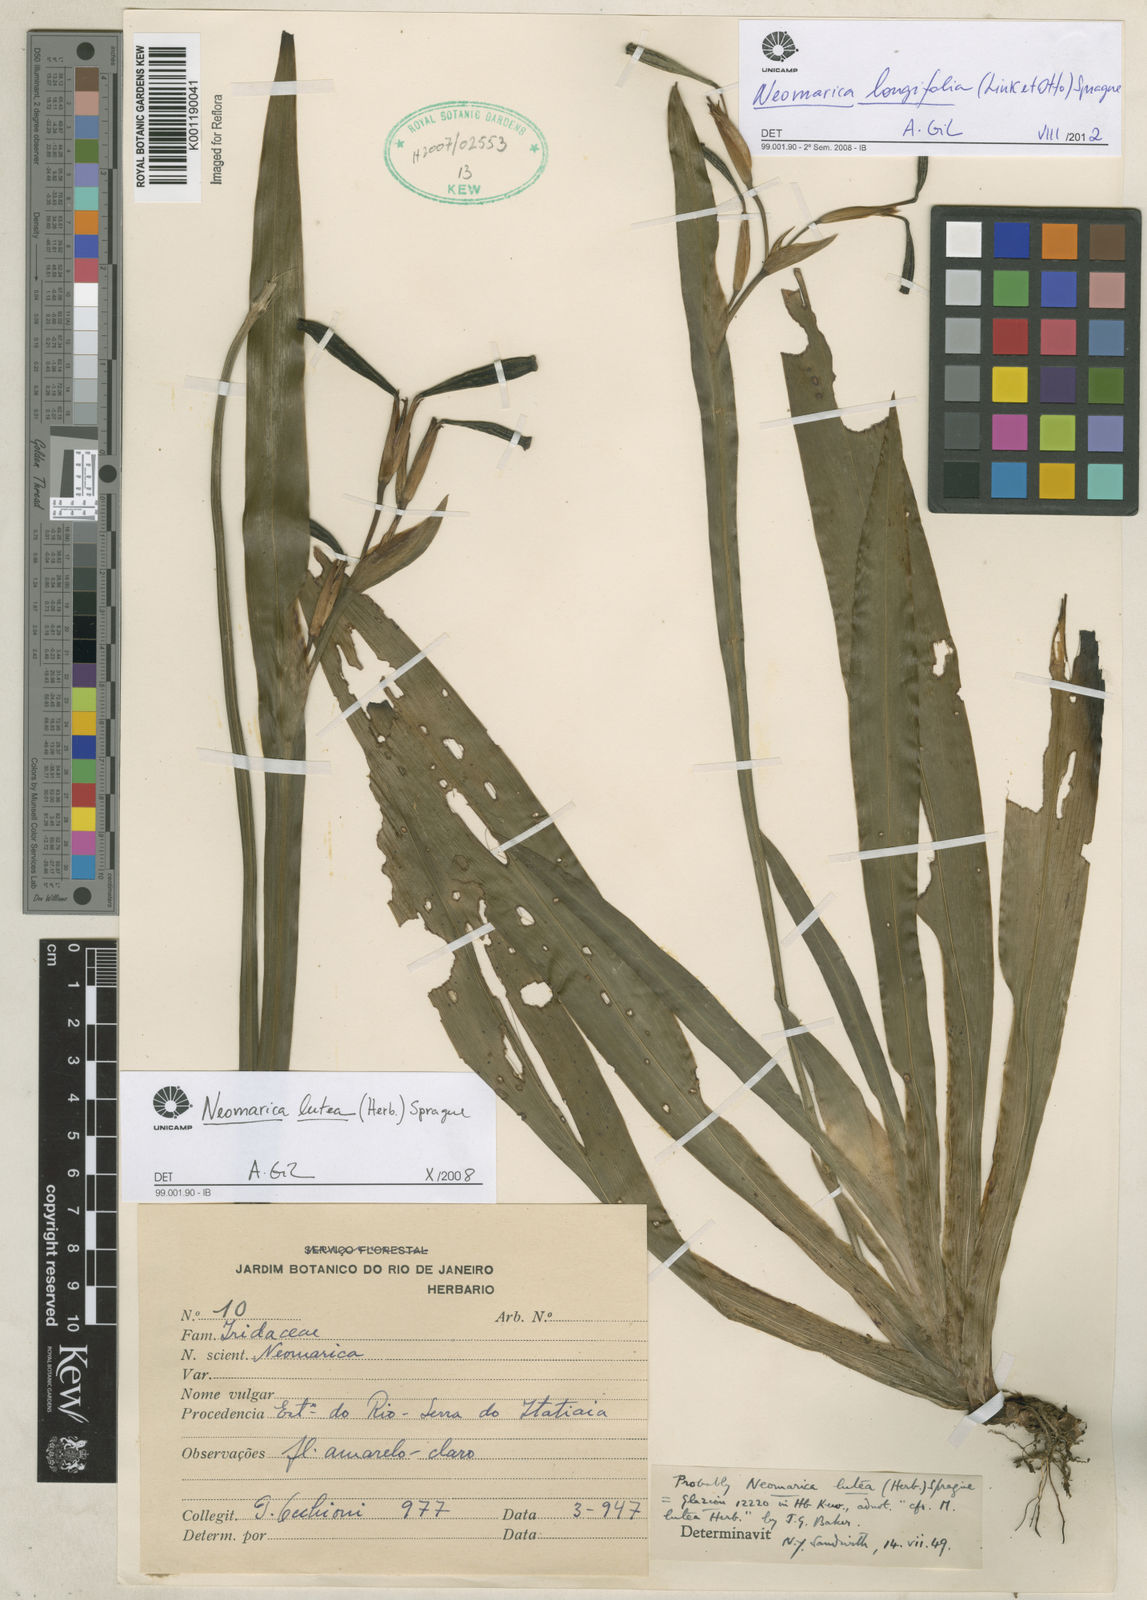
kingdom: Plantae
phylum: Tracheophyta
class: Liliopsida
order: Asparagales
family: Iridaceae
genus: Trimezia
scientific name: Trimezia longifolia
